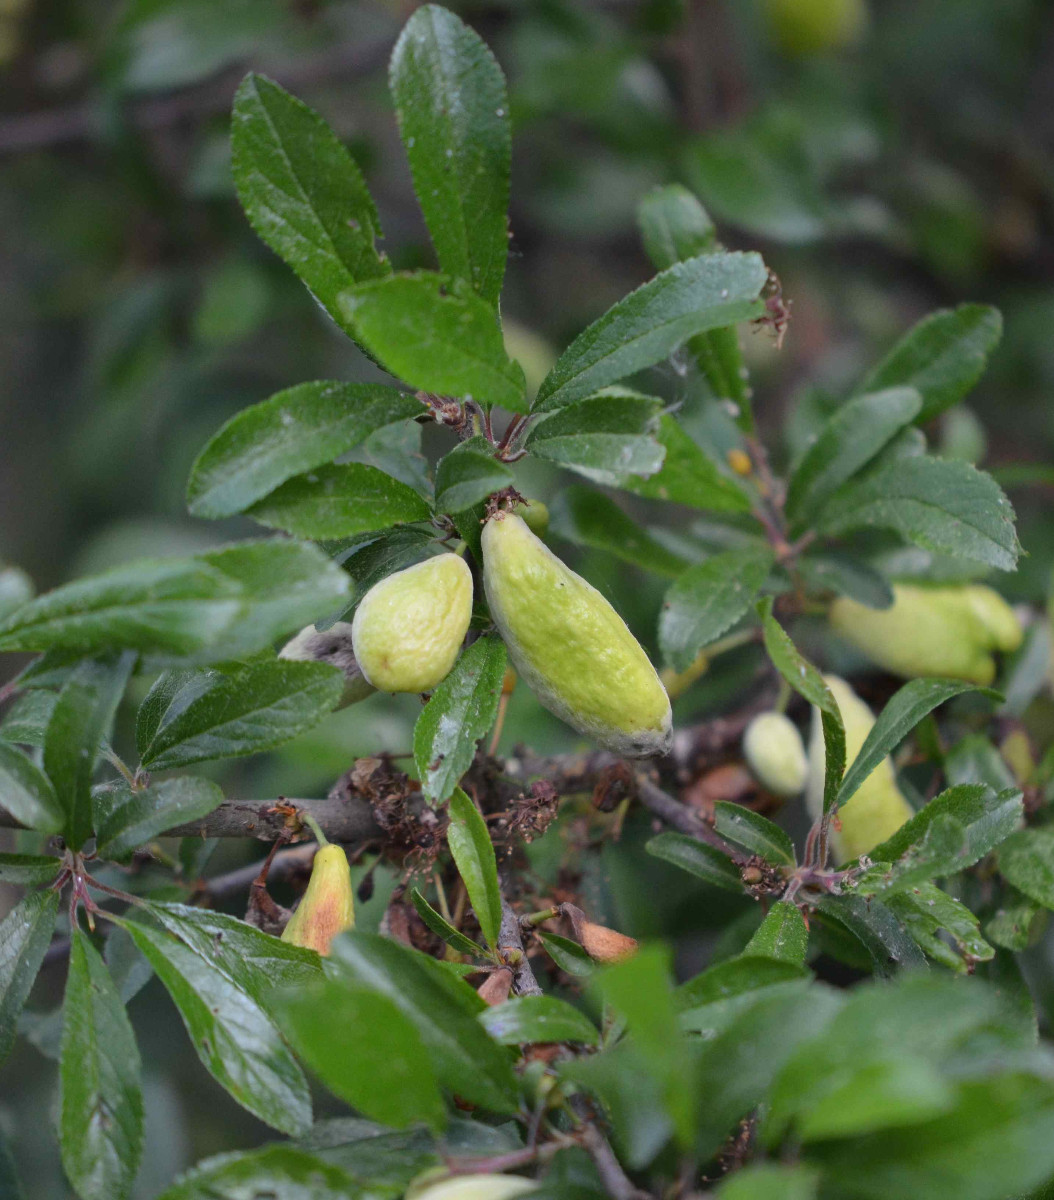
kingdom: Fungi
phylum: Ascomycota
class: Taphrinomycetes
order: Taphrinales
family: Taphrinaceae
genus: Taphrina
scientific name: Taphrina pruni
